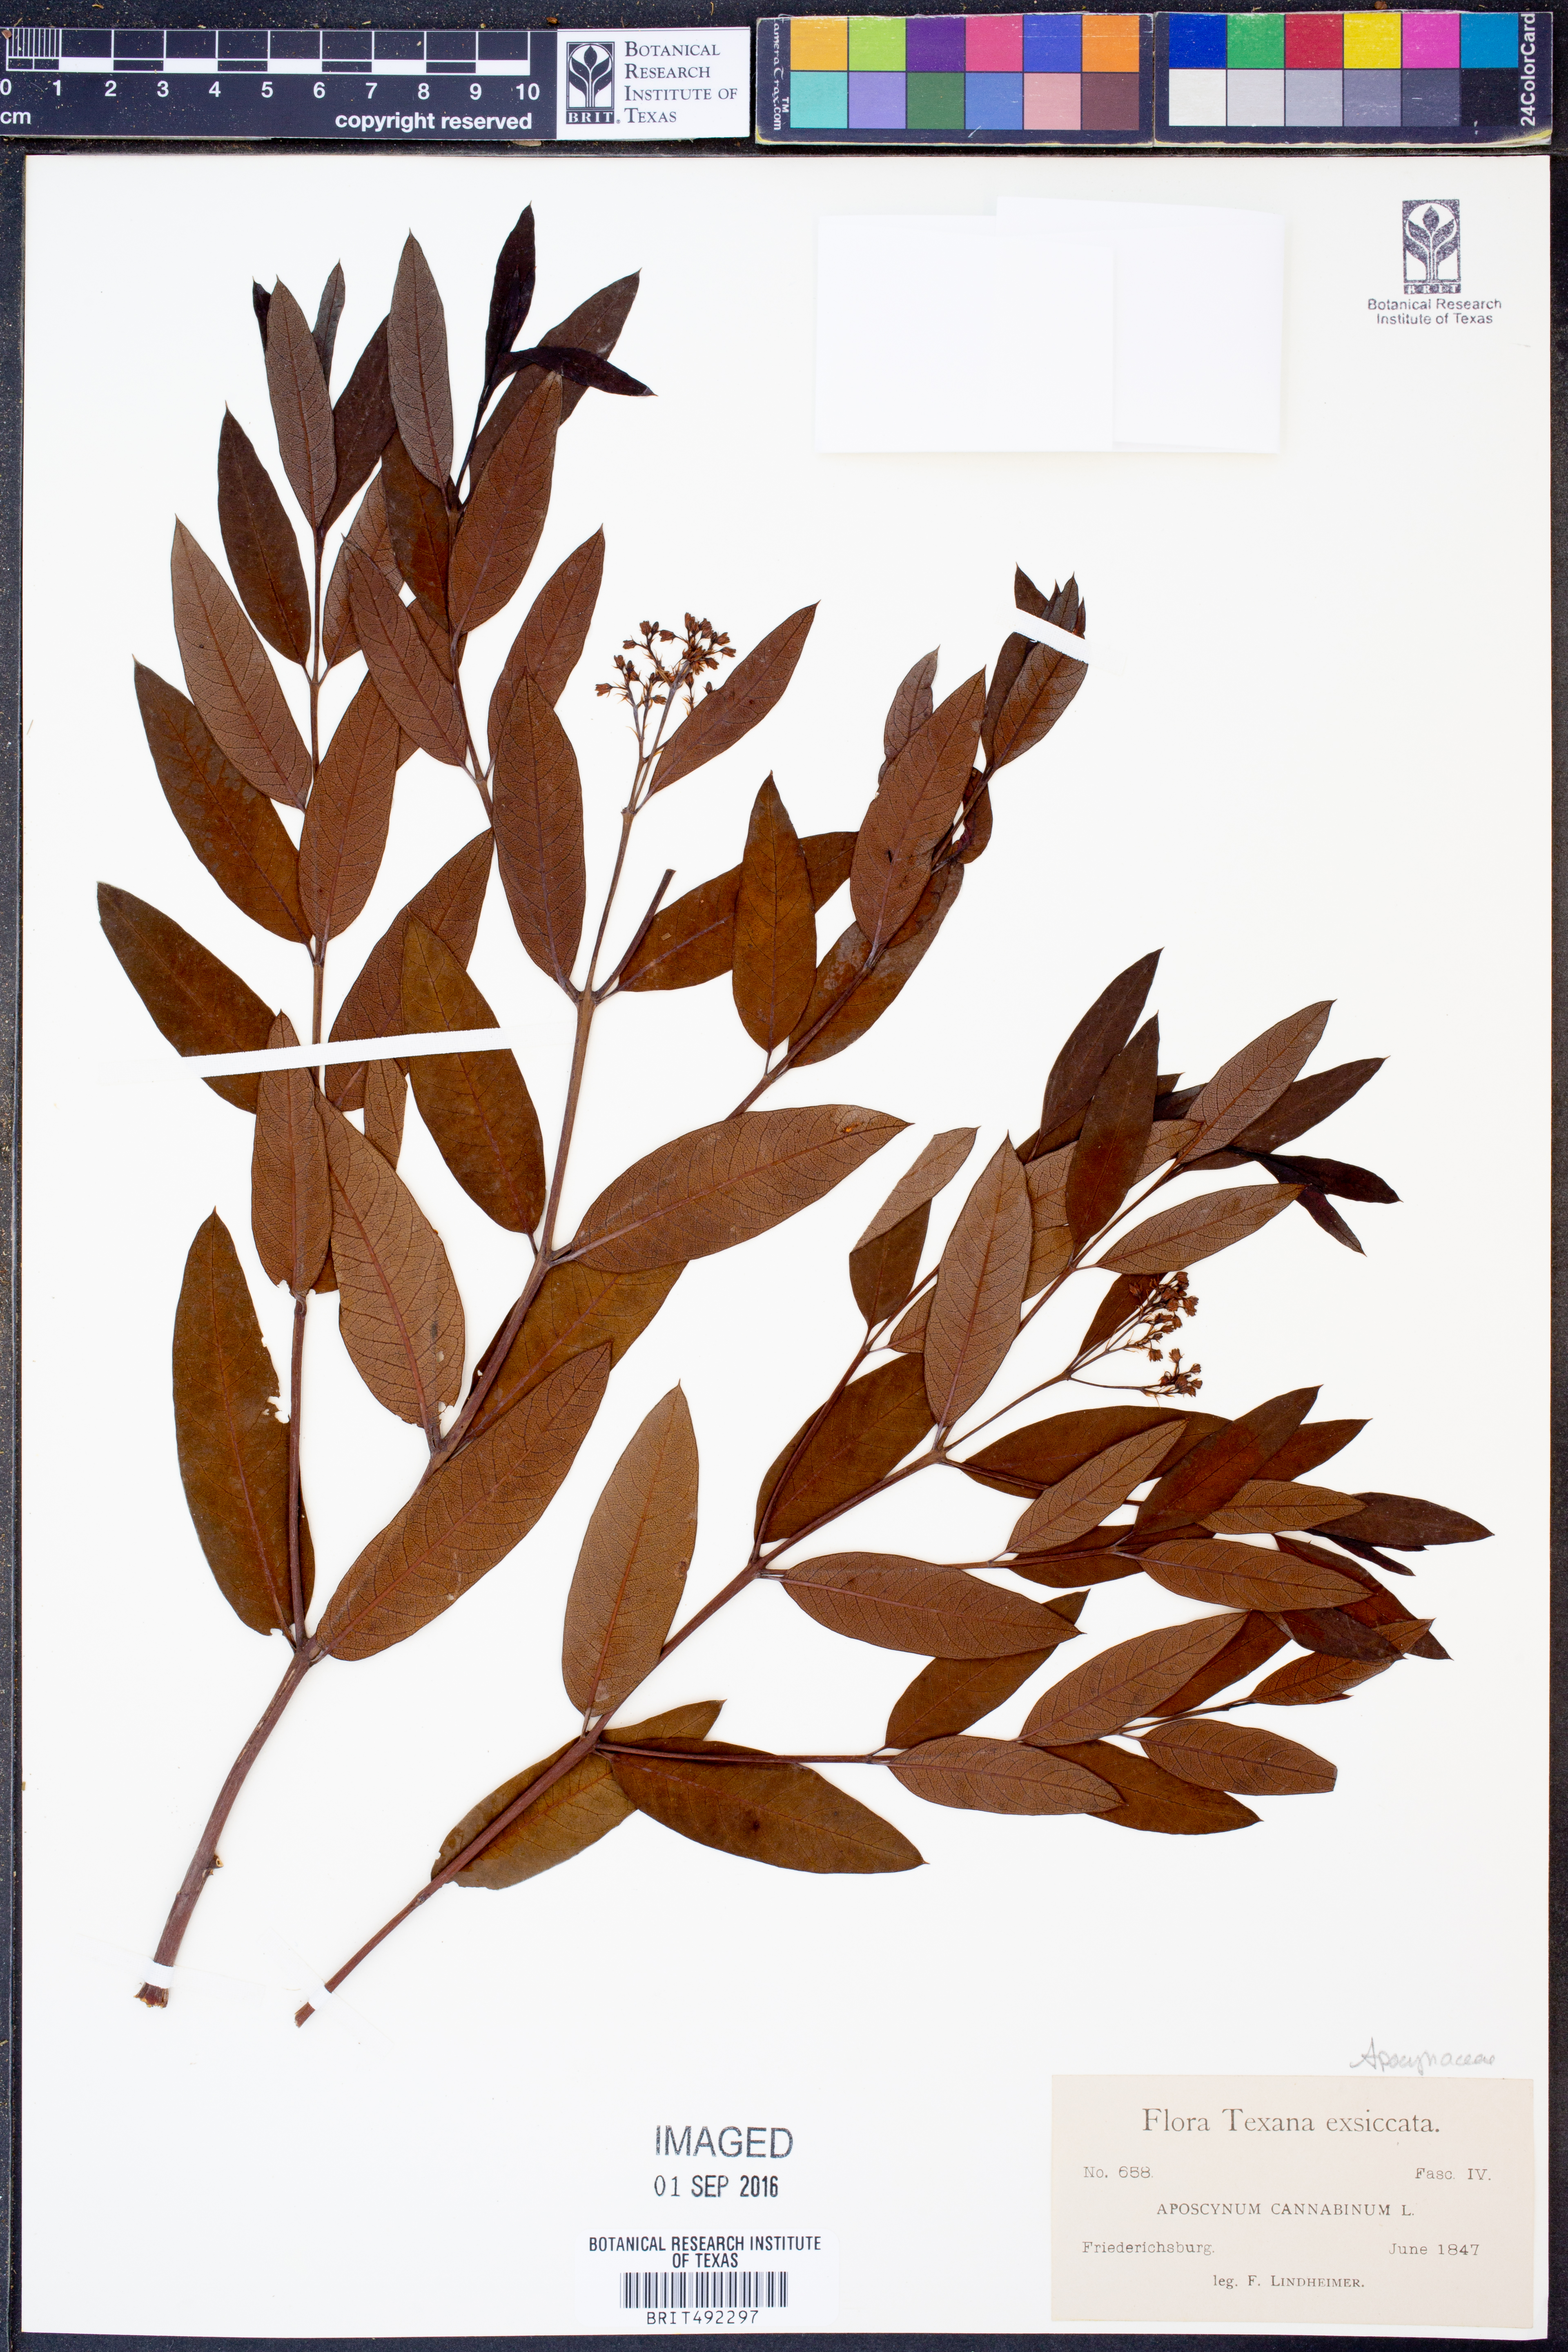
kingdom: Plantae
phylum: Tracheophyta
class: Magnoliopsida
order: Gentianales
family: Apocynaceae
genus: Apocynum
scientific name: Apocynum cannabinum
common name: Hemp dogbane
